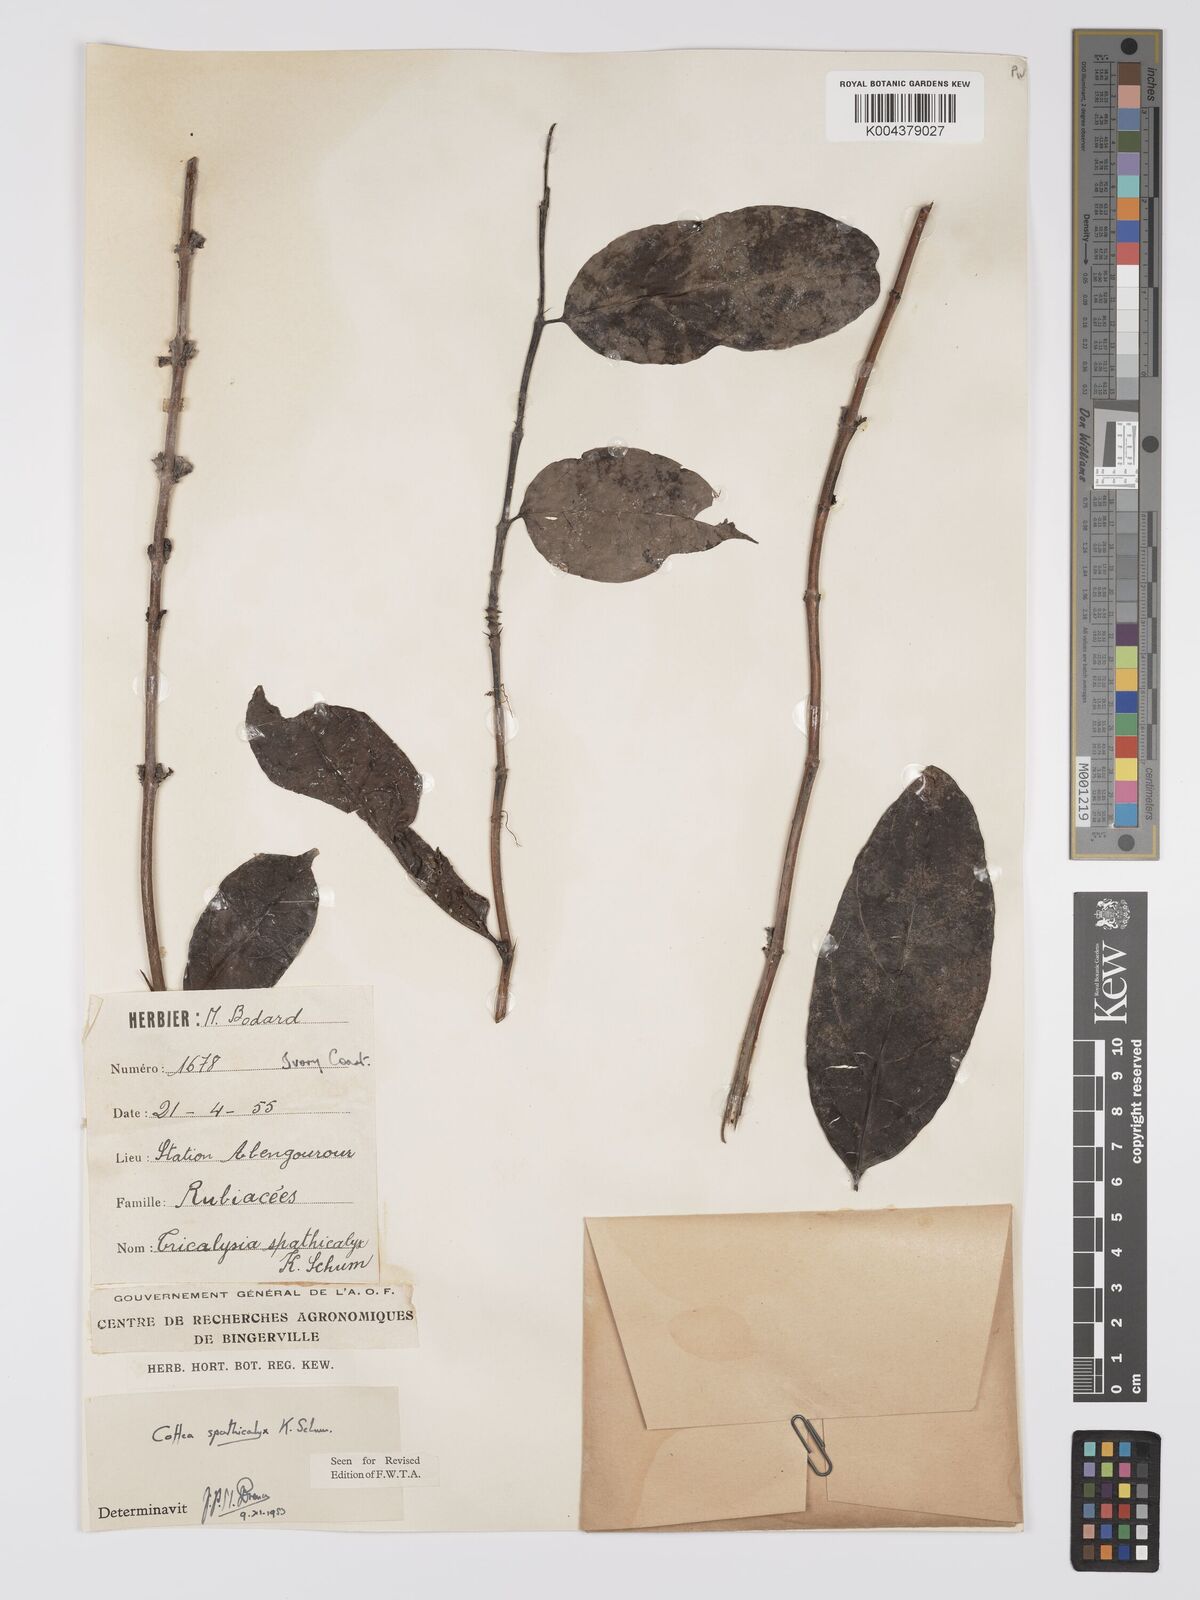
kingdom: Plantae
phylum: Tracheophyta
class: Magnoliopsida
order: Gentianales
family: Rubiaceae
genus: Calycosiphonia
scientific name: Calycosiphonia spathicalyx
